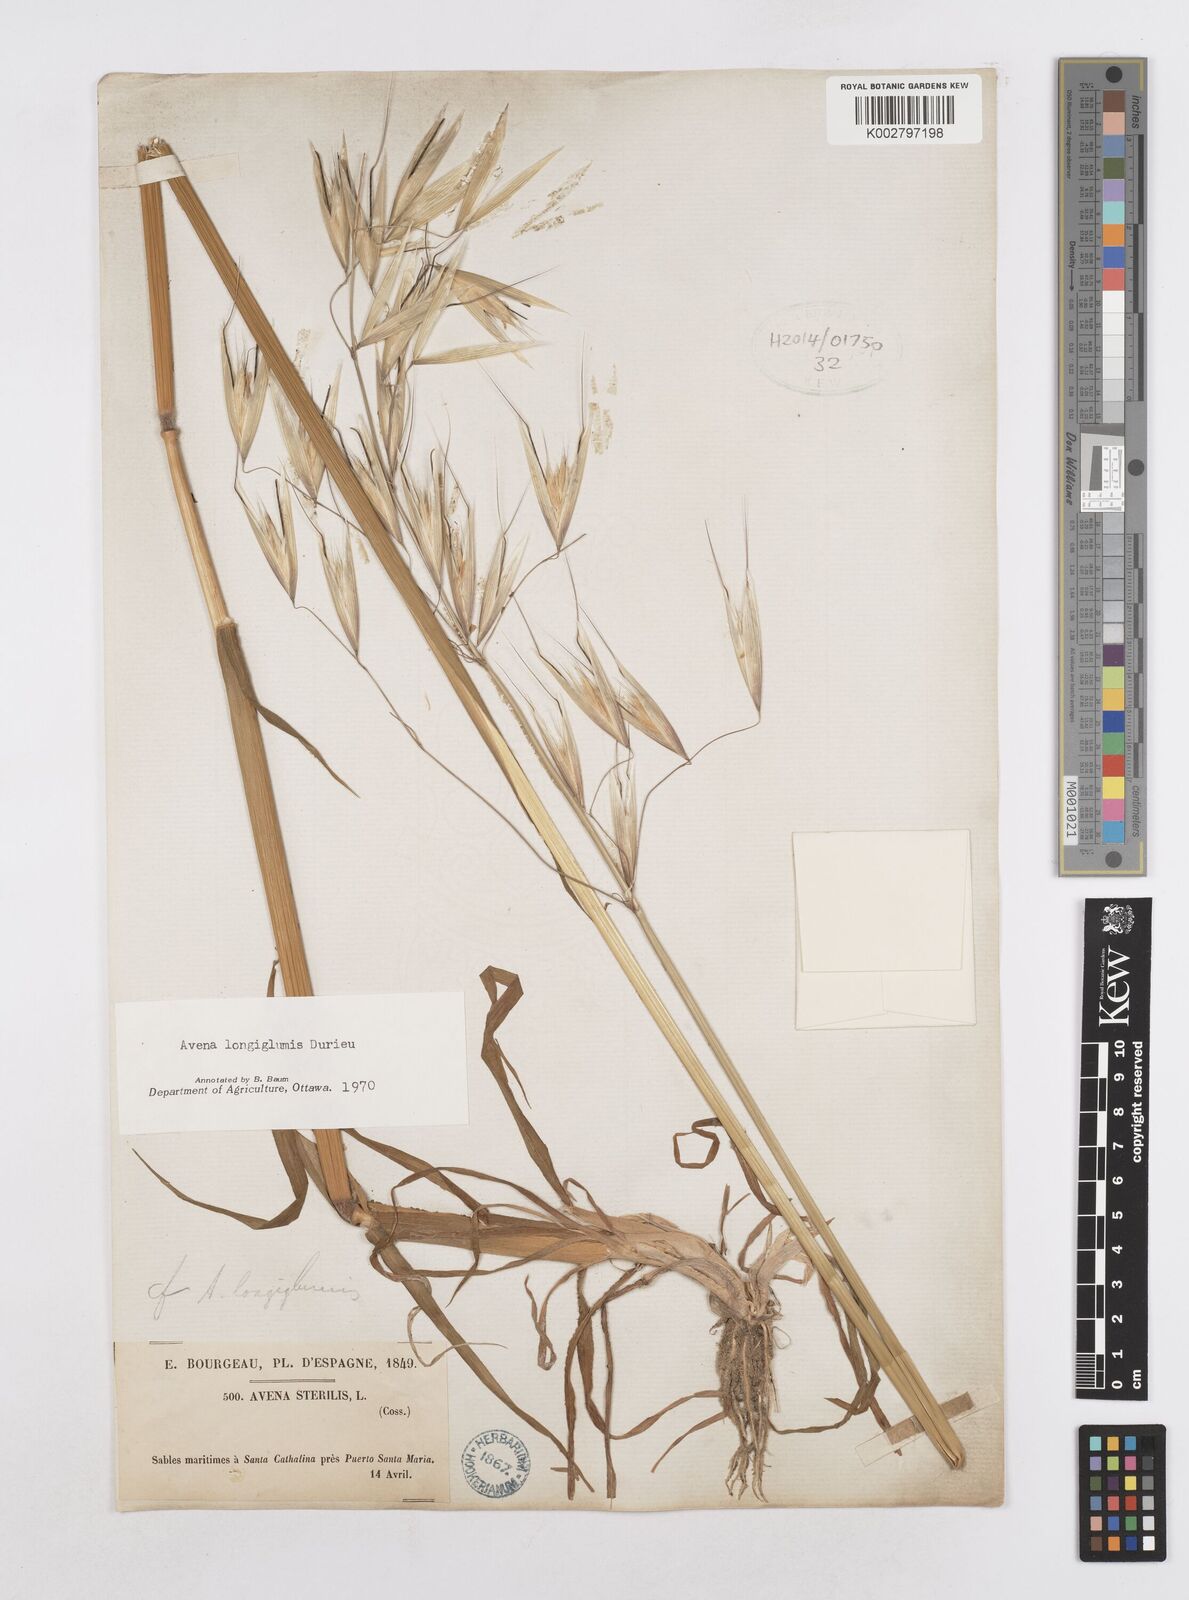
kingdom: Plantae
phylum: Tracheophyta
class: Liliopsida
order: Poales
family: Poaceae
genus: Avena
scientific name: Avena longiglumis
